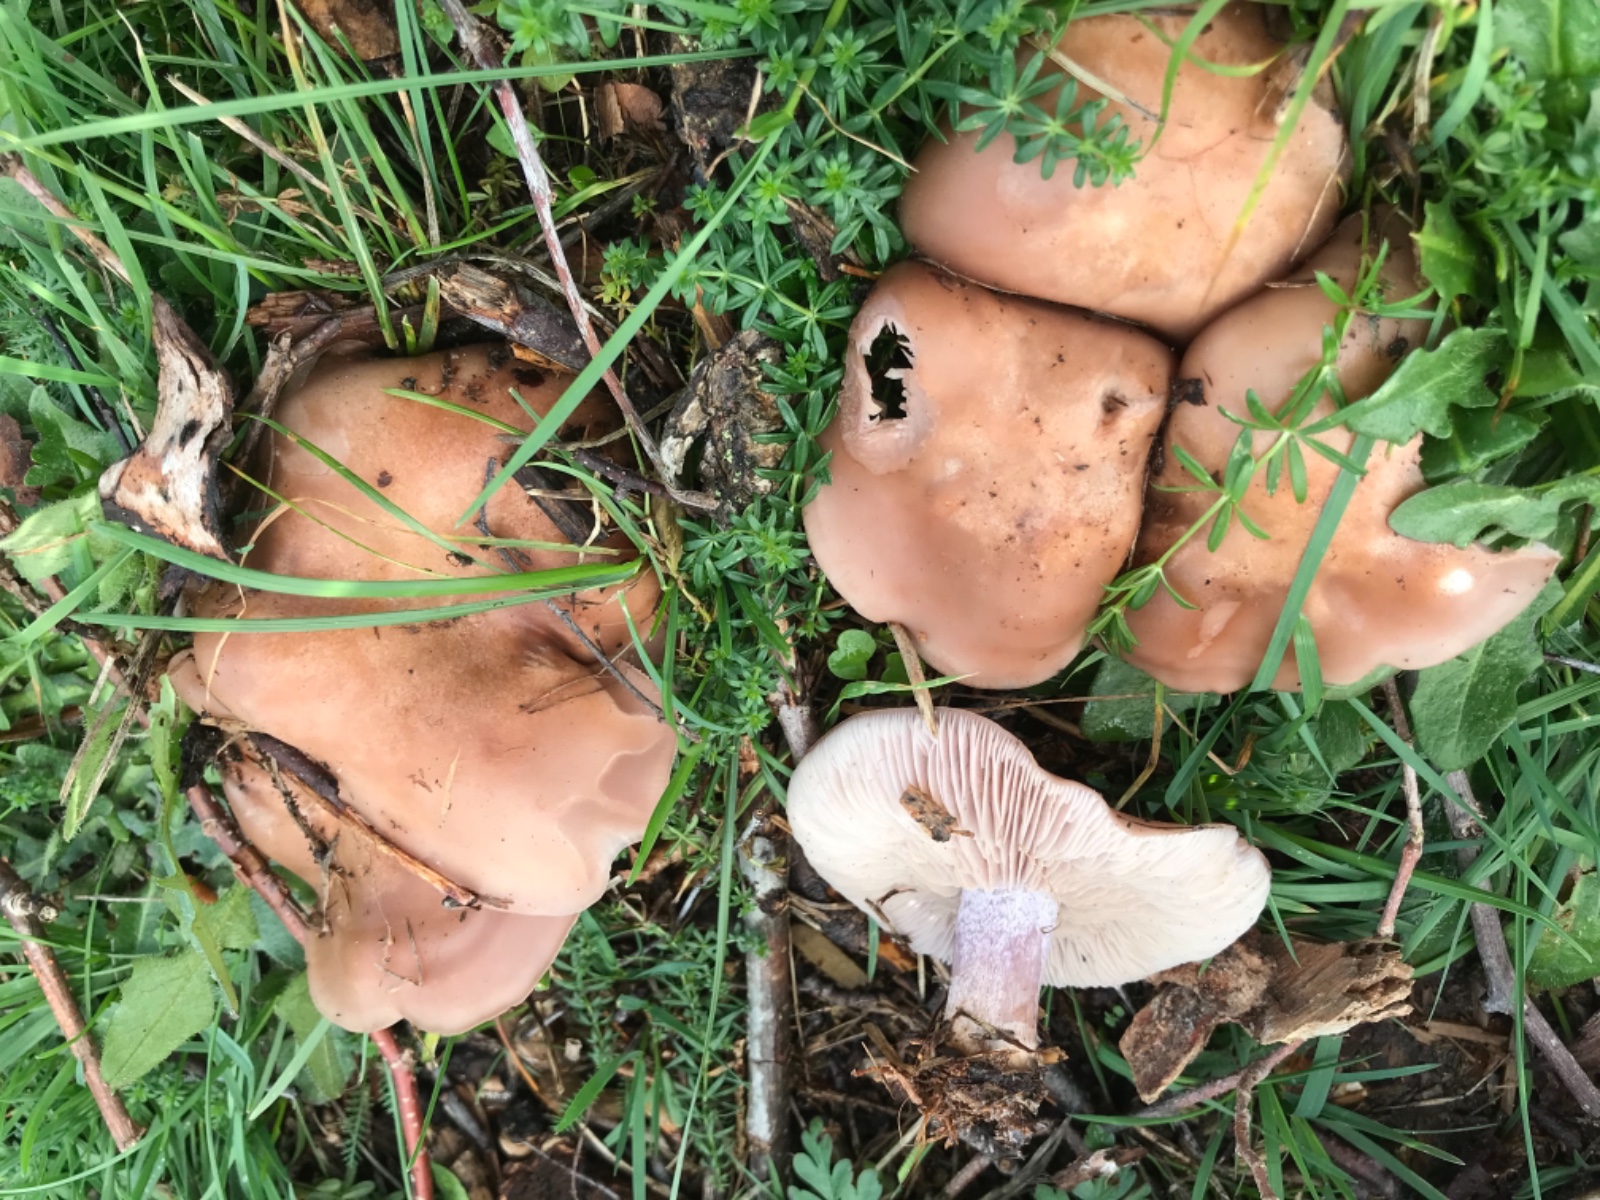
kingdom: Fungi
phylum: Basidiomycota
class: Agaricomycetes
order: Agaricales
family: Tricholomataceae
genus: Lepista
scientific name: Lepista
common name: hekseringshat
